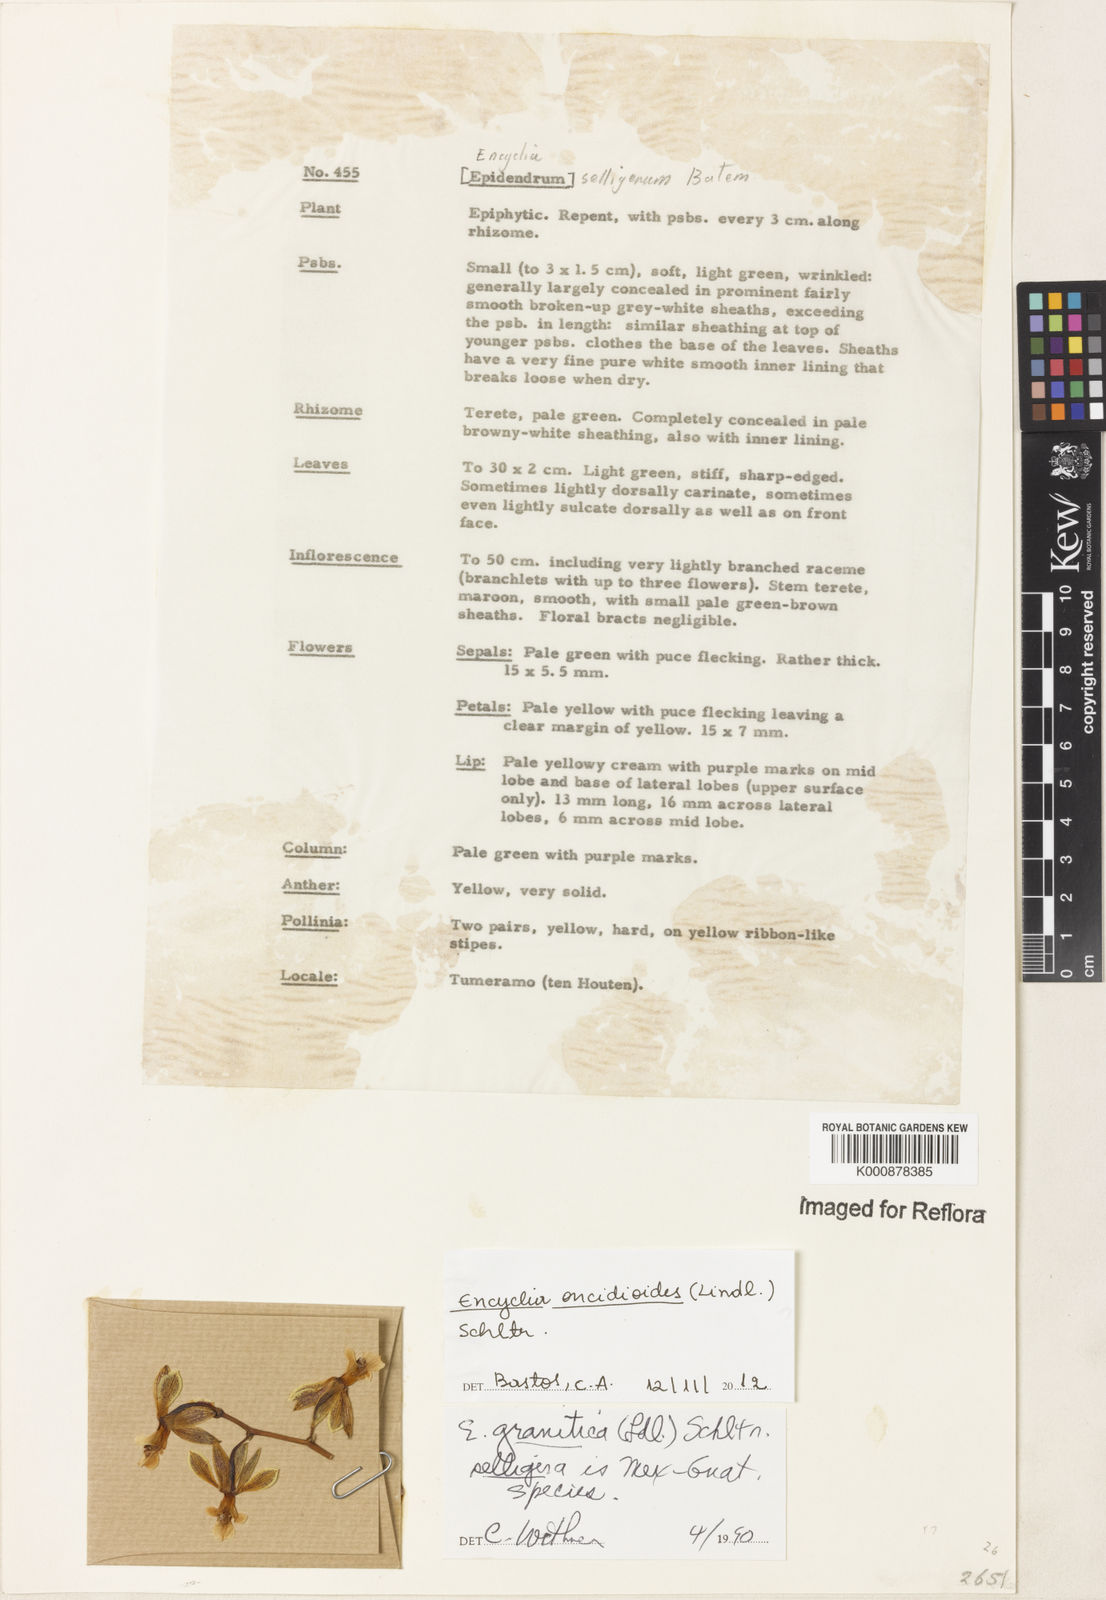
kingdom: Plantae
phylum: Tracheophyta
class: Liliopsida
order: Asparagales
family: Orchidaceae
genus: Encyclia
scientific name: Encyclia oncidioides
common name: Heavyfruit butterfly orchid
